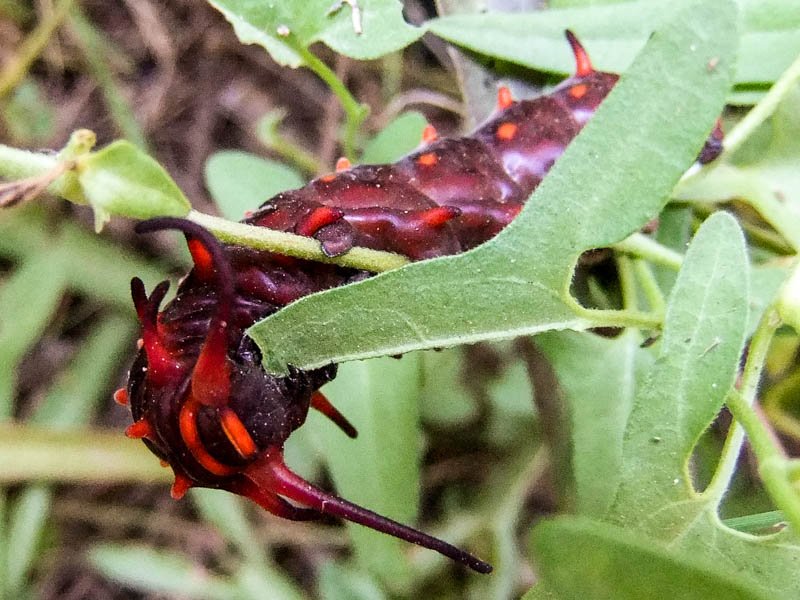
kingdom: Animalia
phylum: Arthropoda
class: Insecta
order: Lepidoptera
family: Papilionidae
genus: Battus
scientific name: Battus philenor
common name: Pipevine Swallowtail
